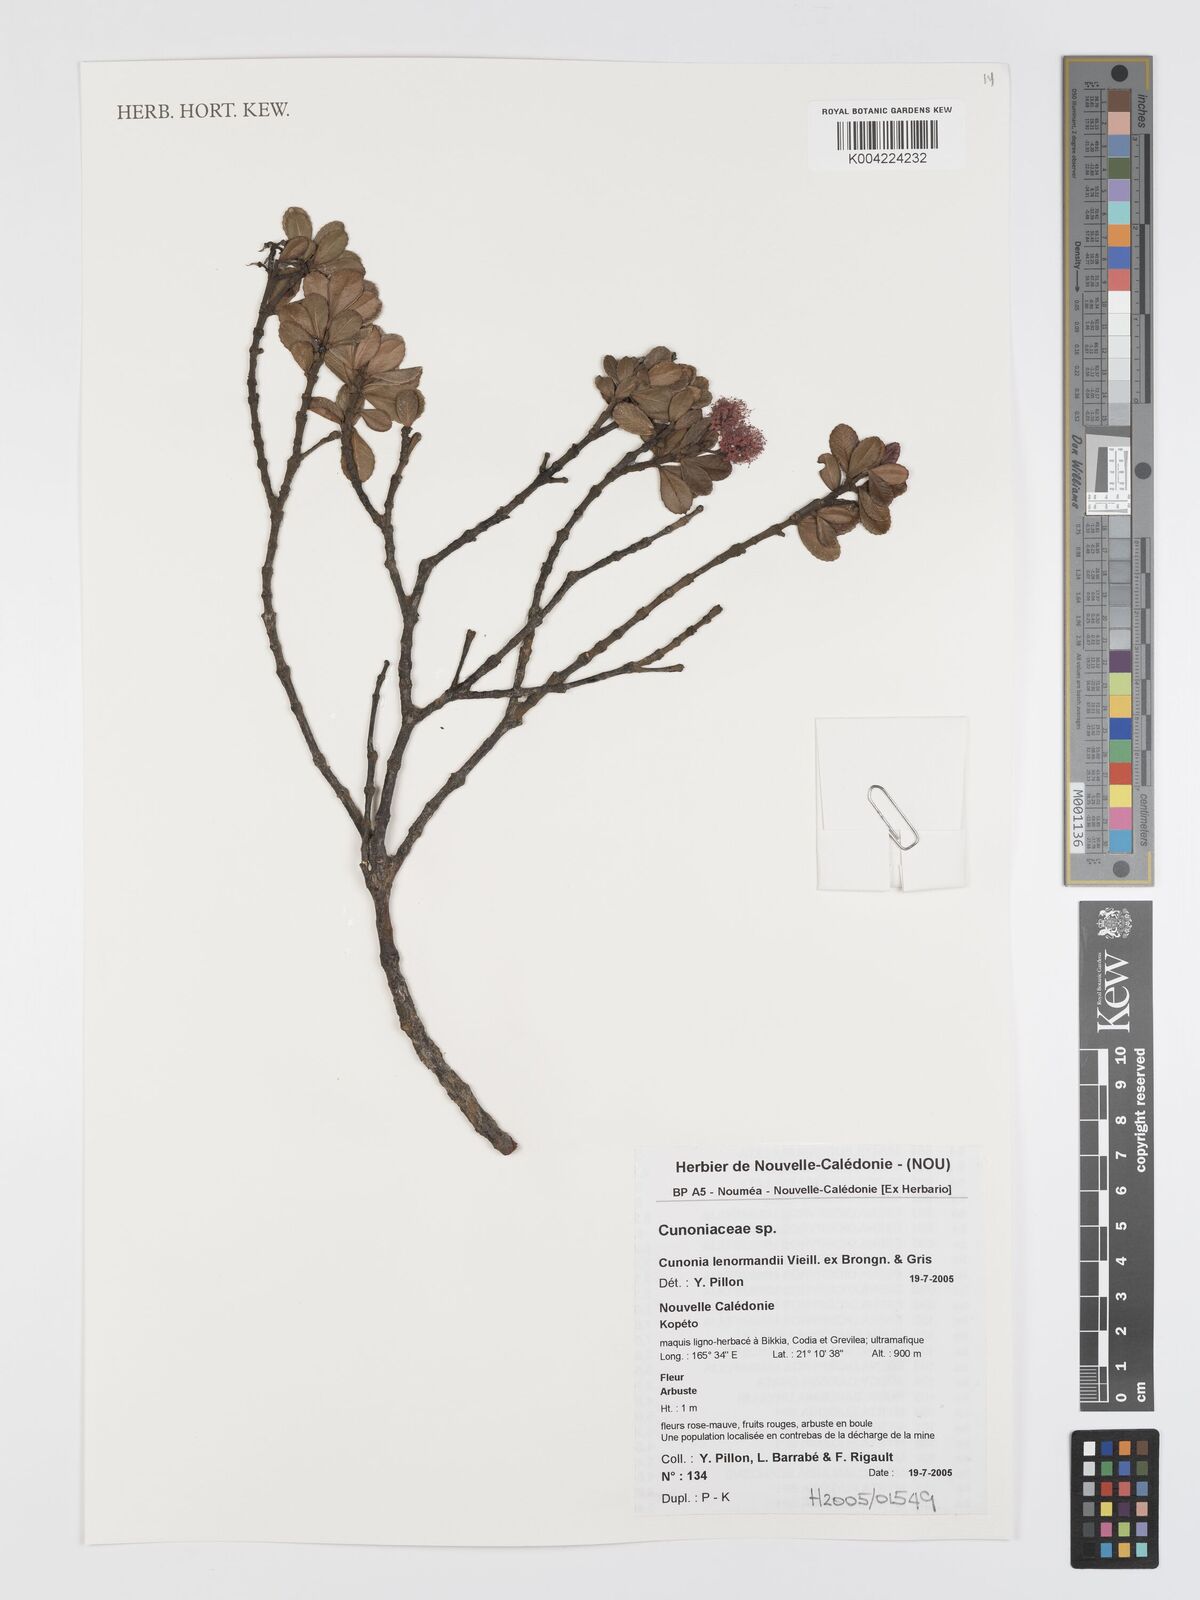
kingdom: Plantae
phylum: Tracheophyta
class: Magnoliopsida
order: Oxalidales
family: Cunoniaceae
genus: Cunonia
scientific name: Cunonia lenormandii
